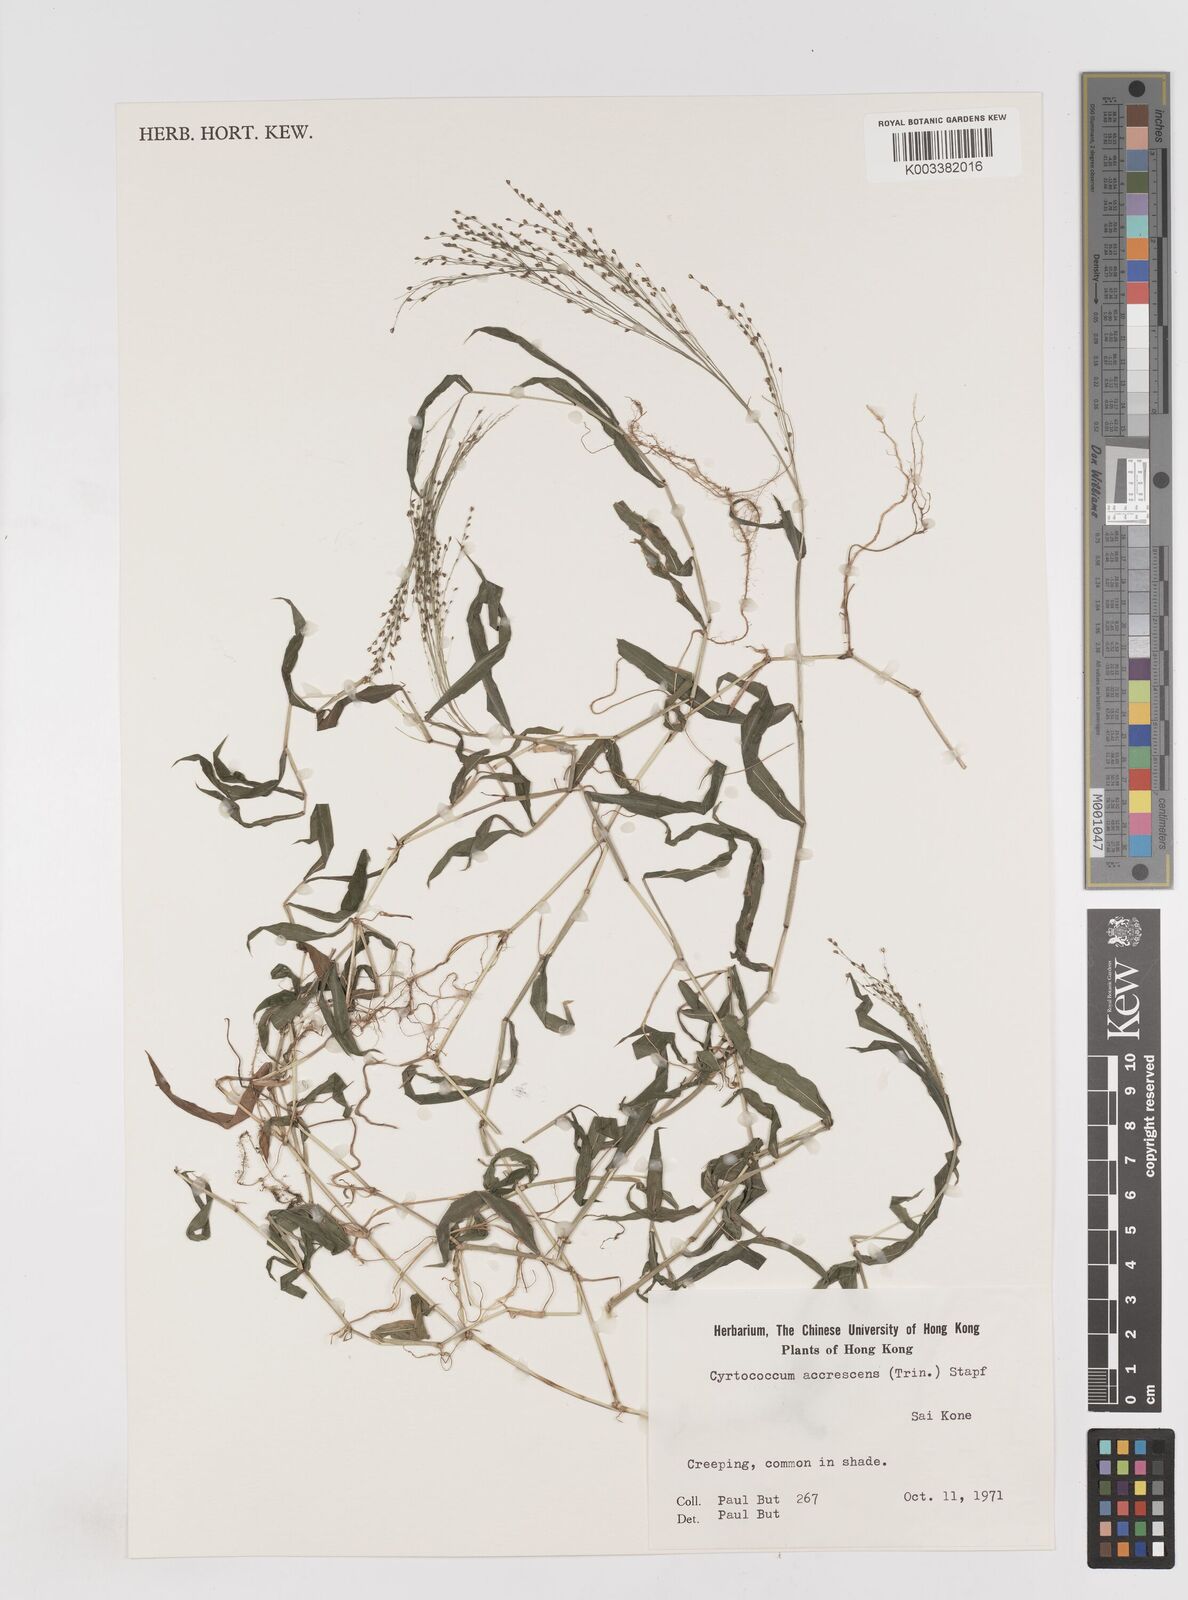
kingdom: Plantae
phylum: Tracheophyta
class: Liliopsida
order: Poales
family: Poaceae
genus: Cyrtococcum
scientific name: Cyrtococcum patens
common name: Broad-leaved bowgrass
